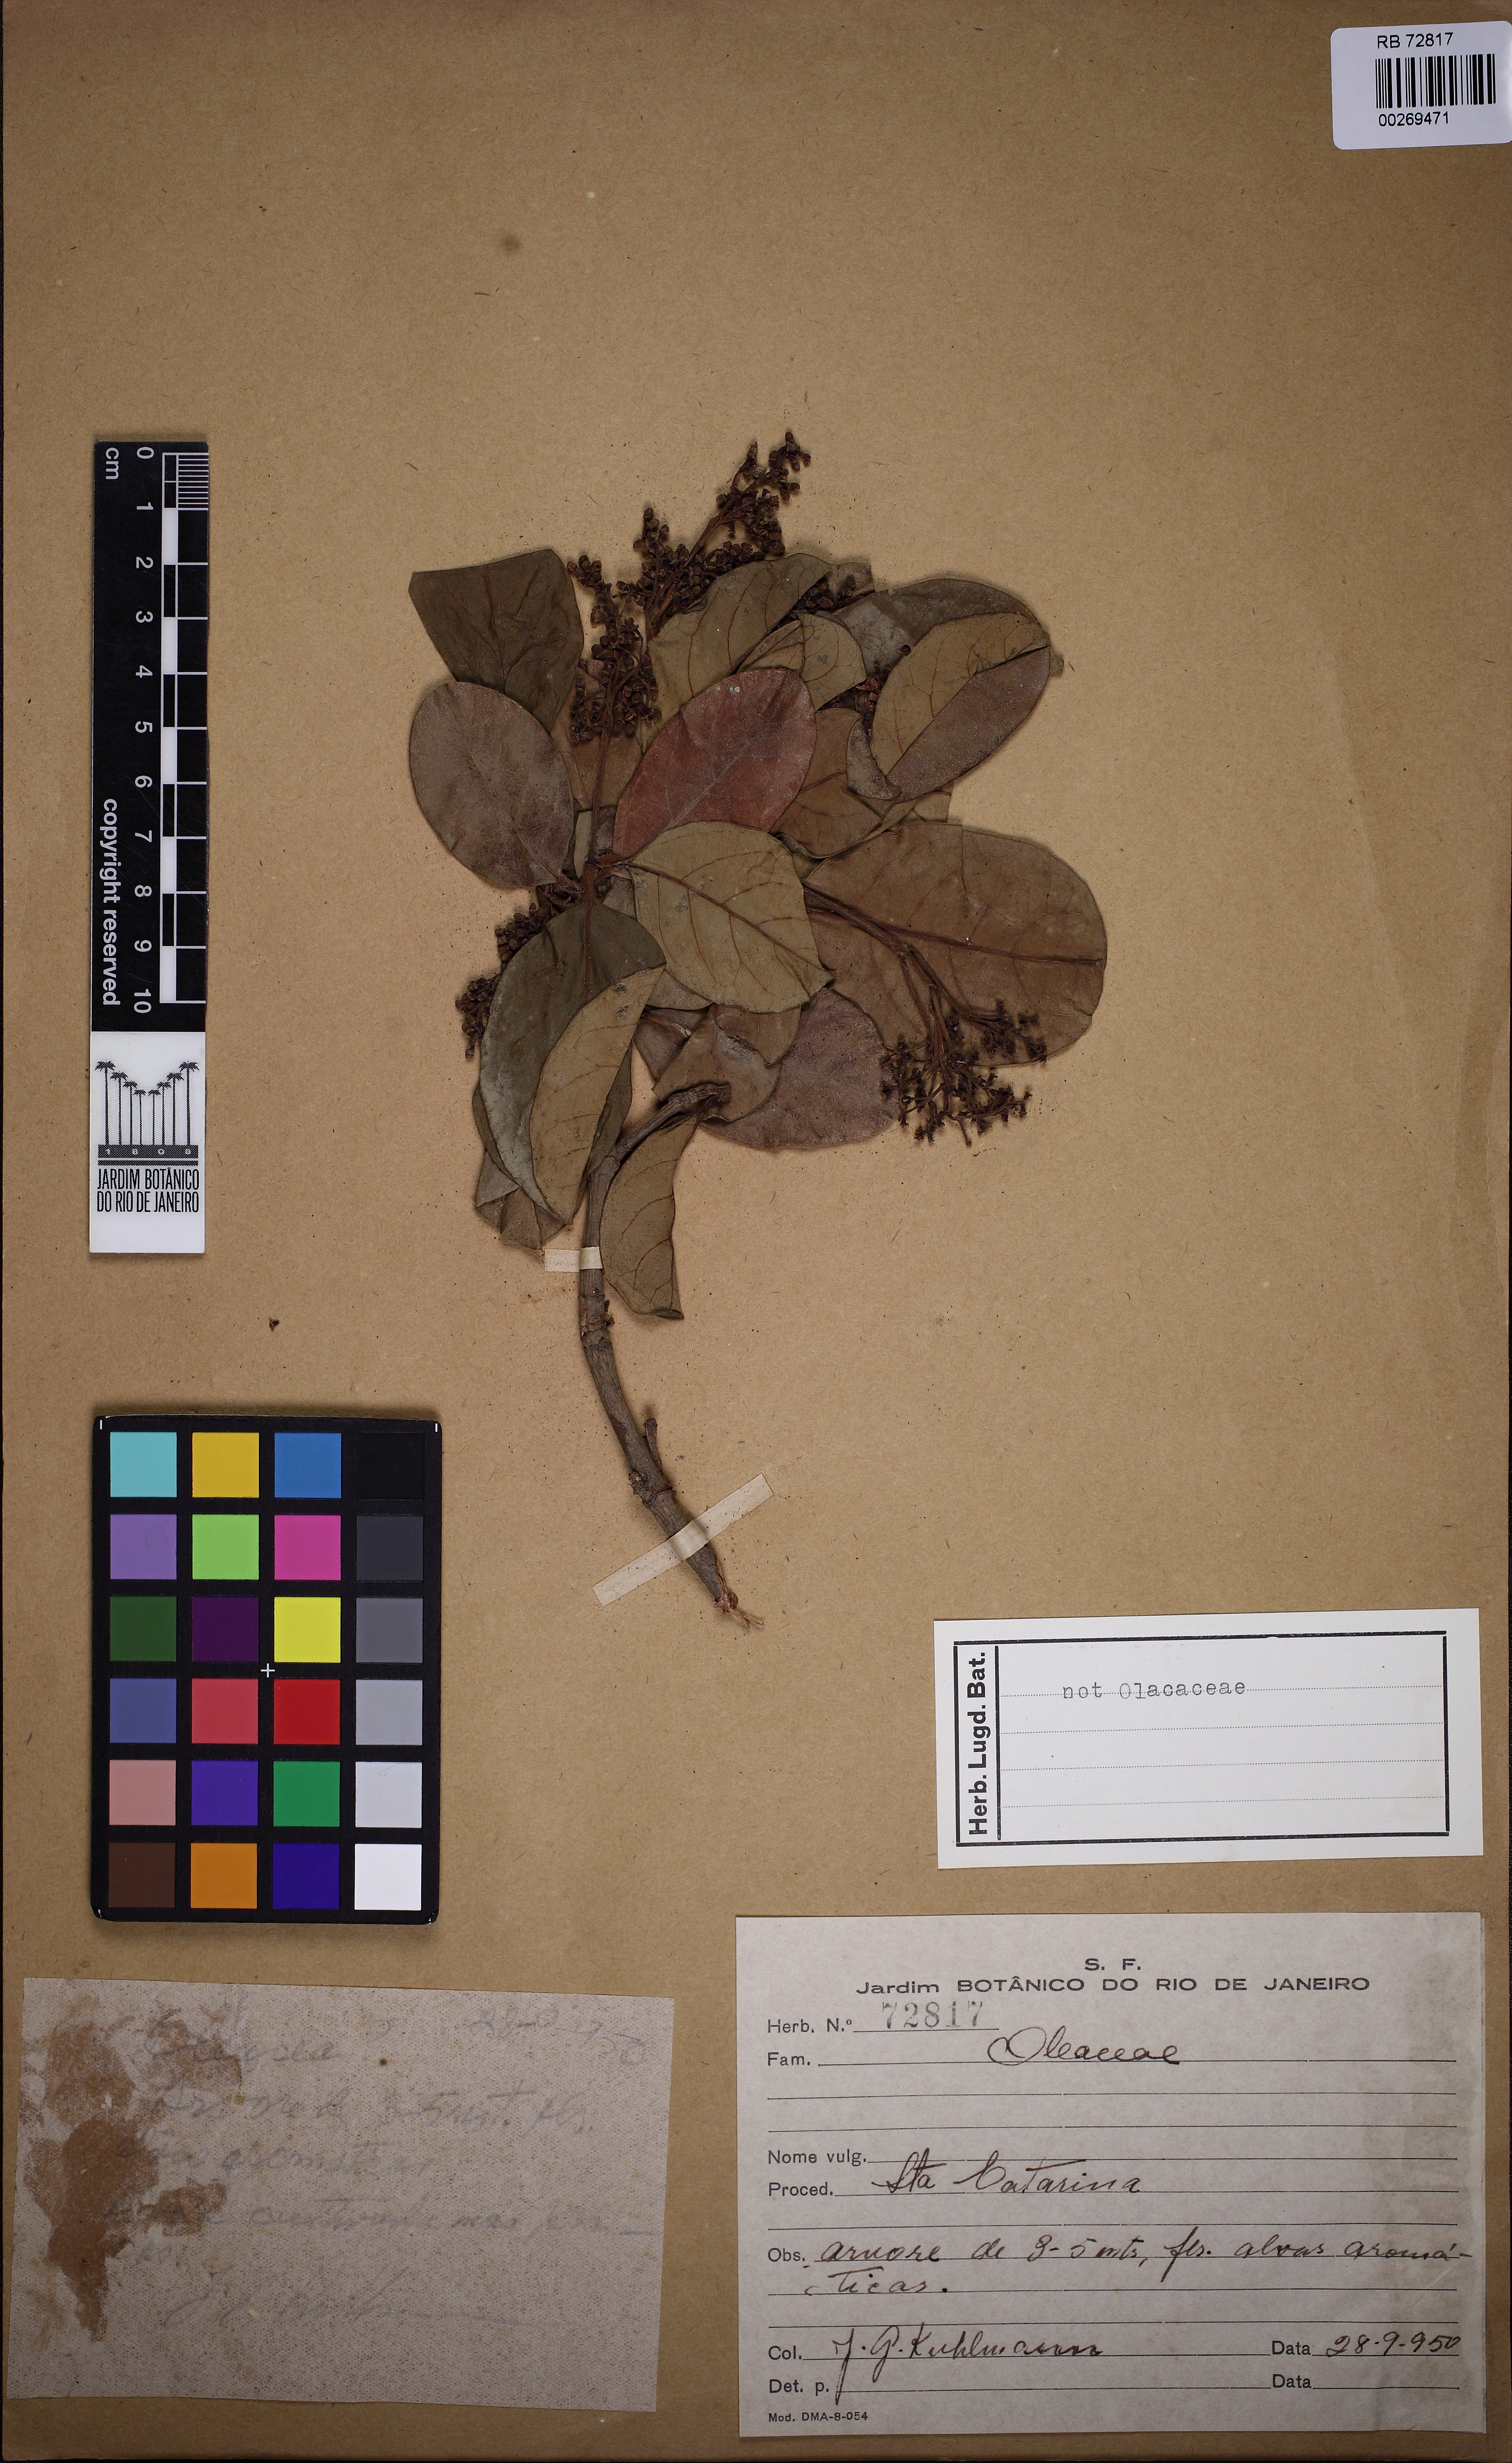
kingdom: Plantae
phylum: Tracheophyta
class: Magnoliopsida
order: Lamiales
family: Oleaceae
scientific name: Oleaceae
